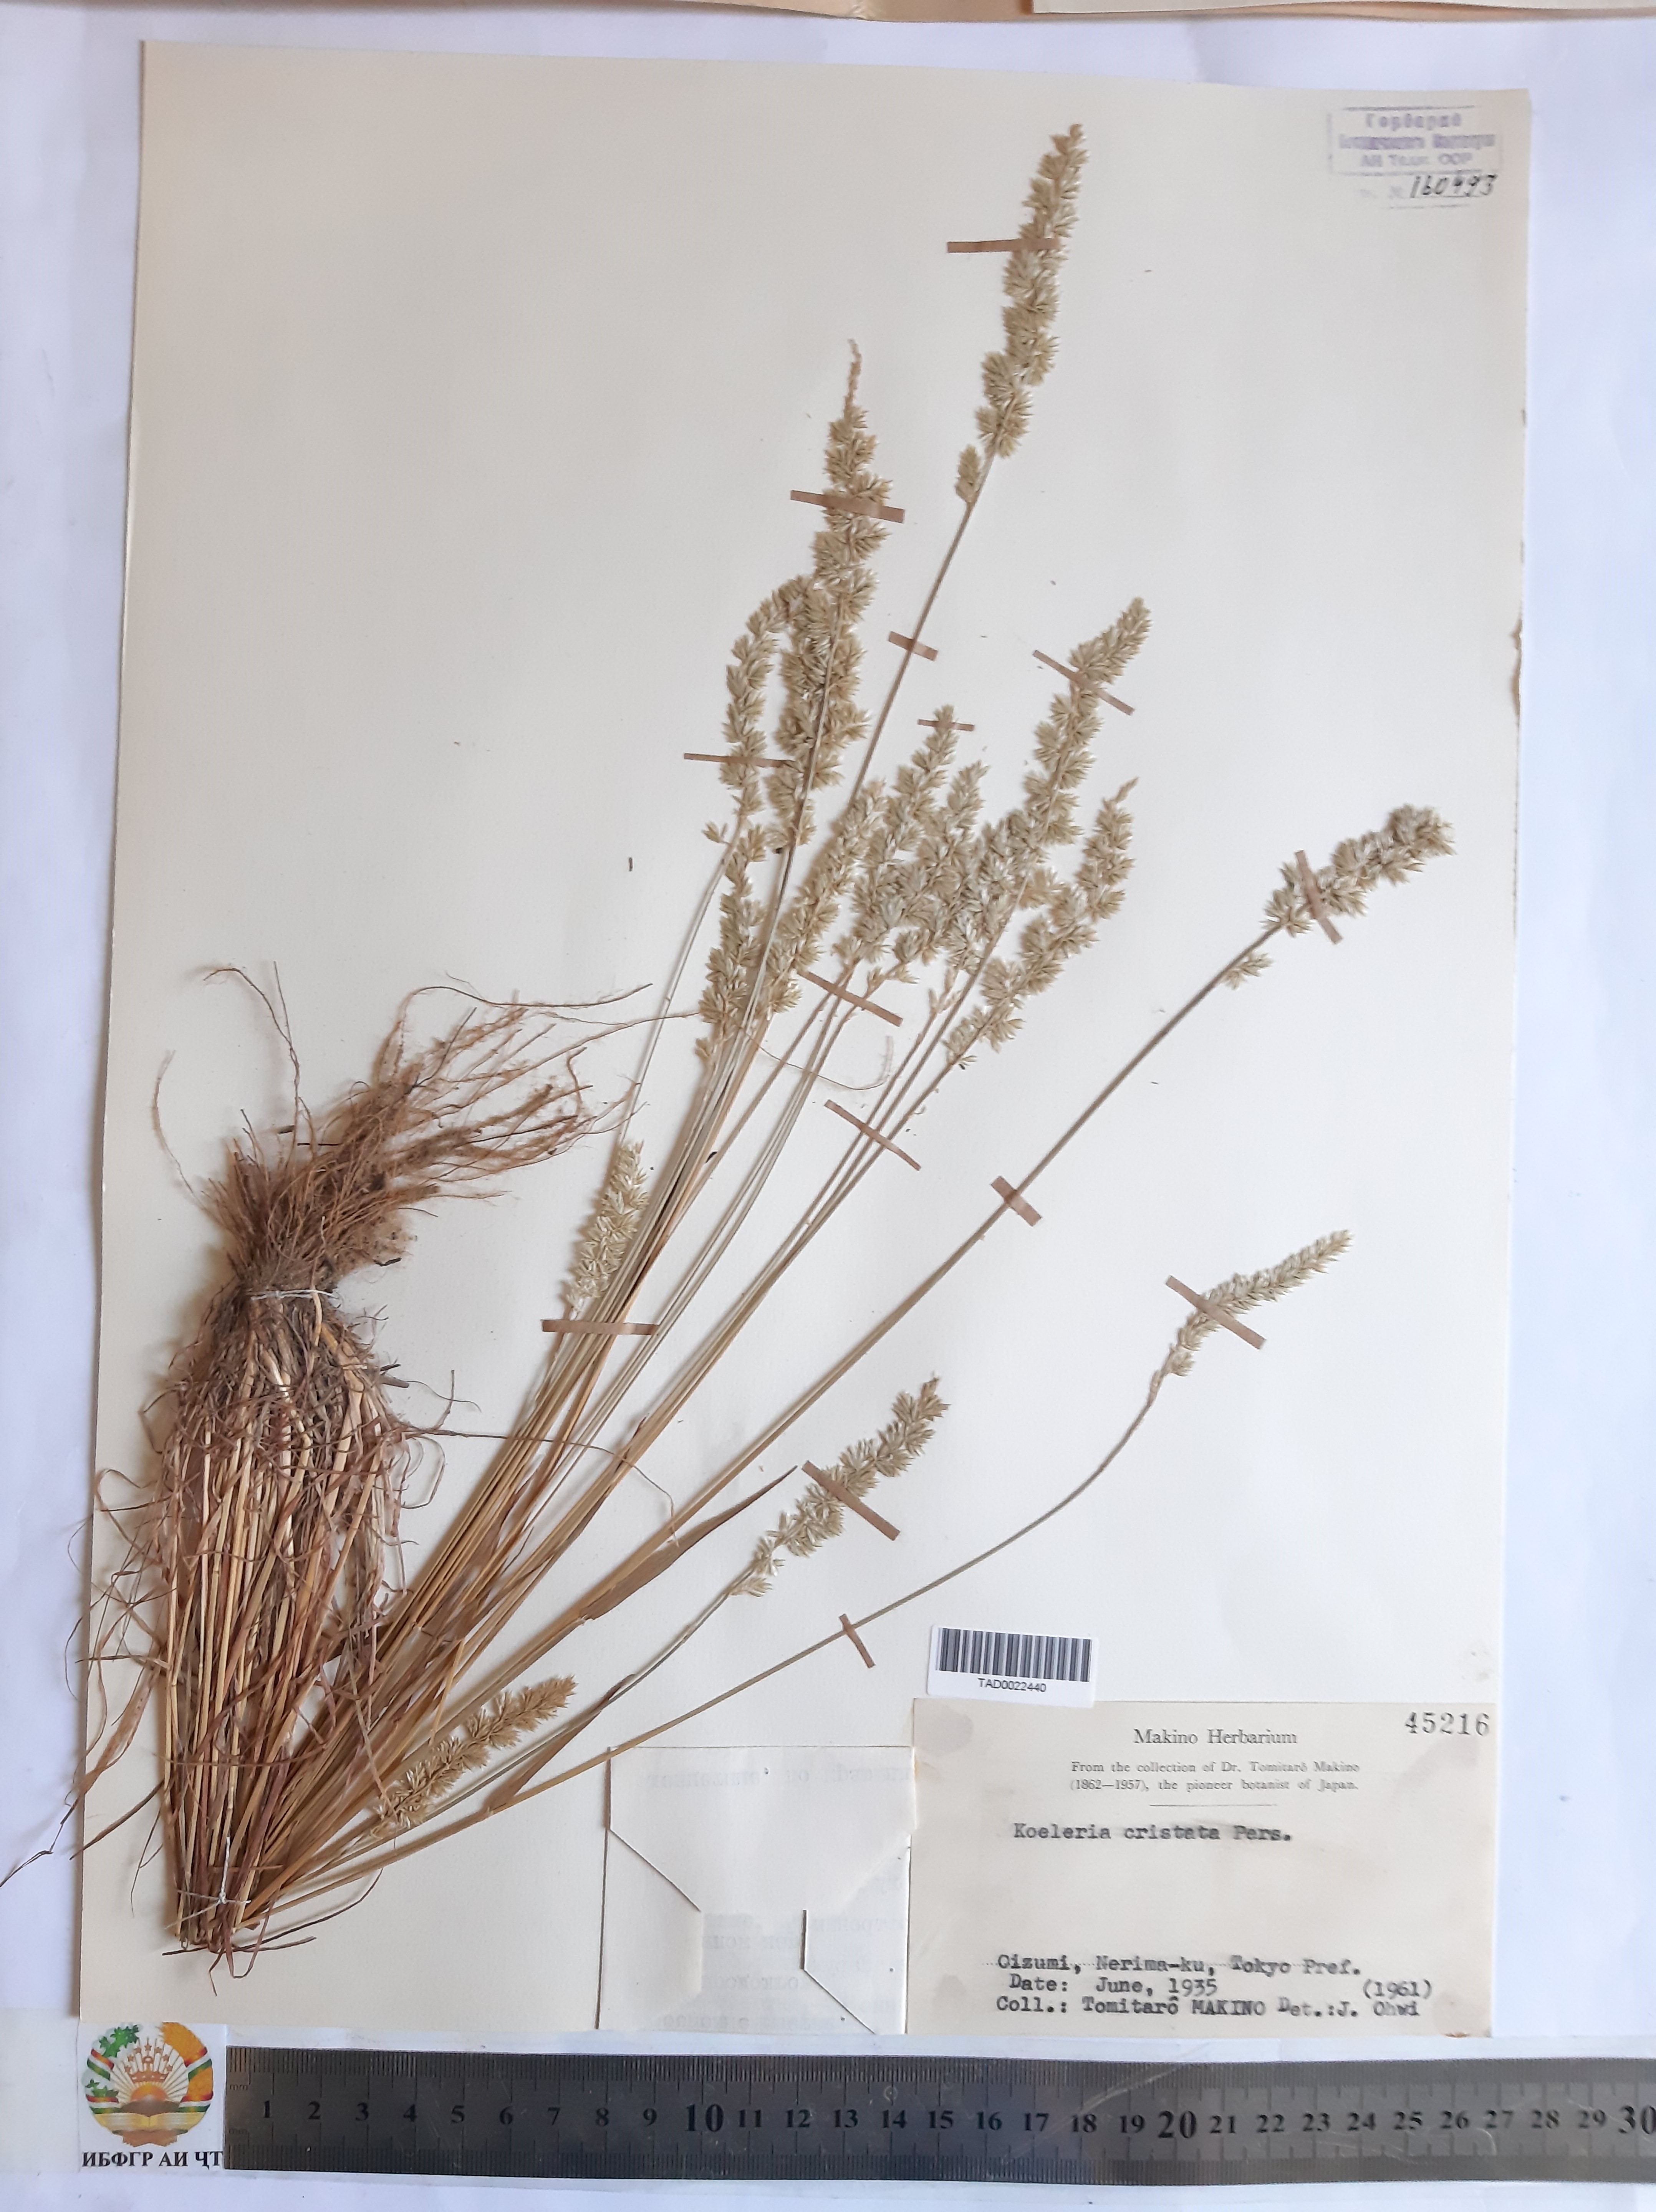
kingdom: Plantae
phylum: Tracheophyta
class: Liliopsida
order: Poales
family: Poaceae
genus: Koeleria
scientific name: Koeleria pyramidata
